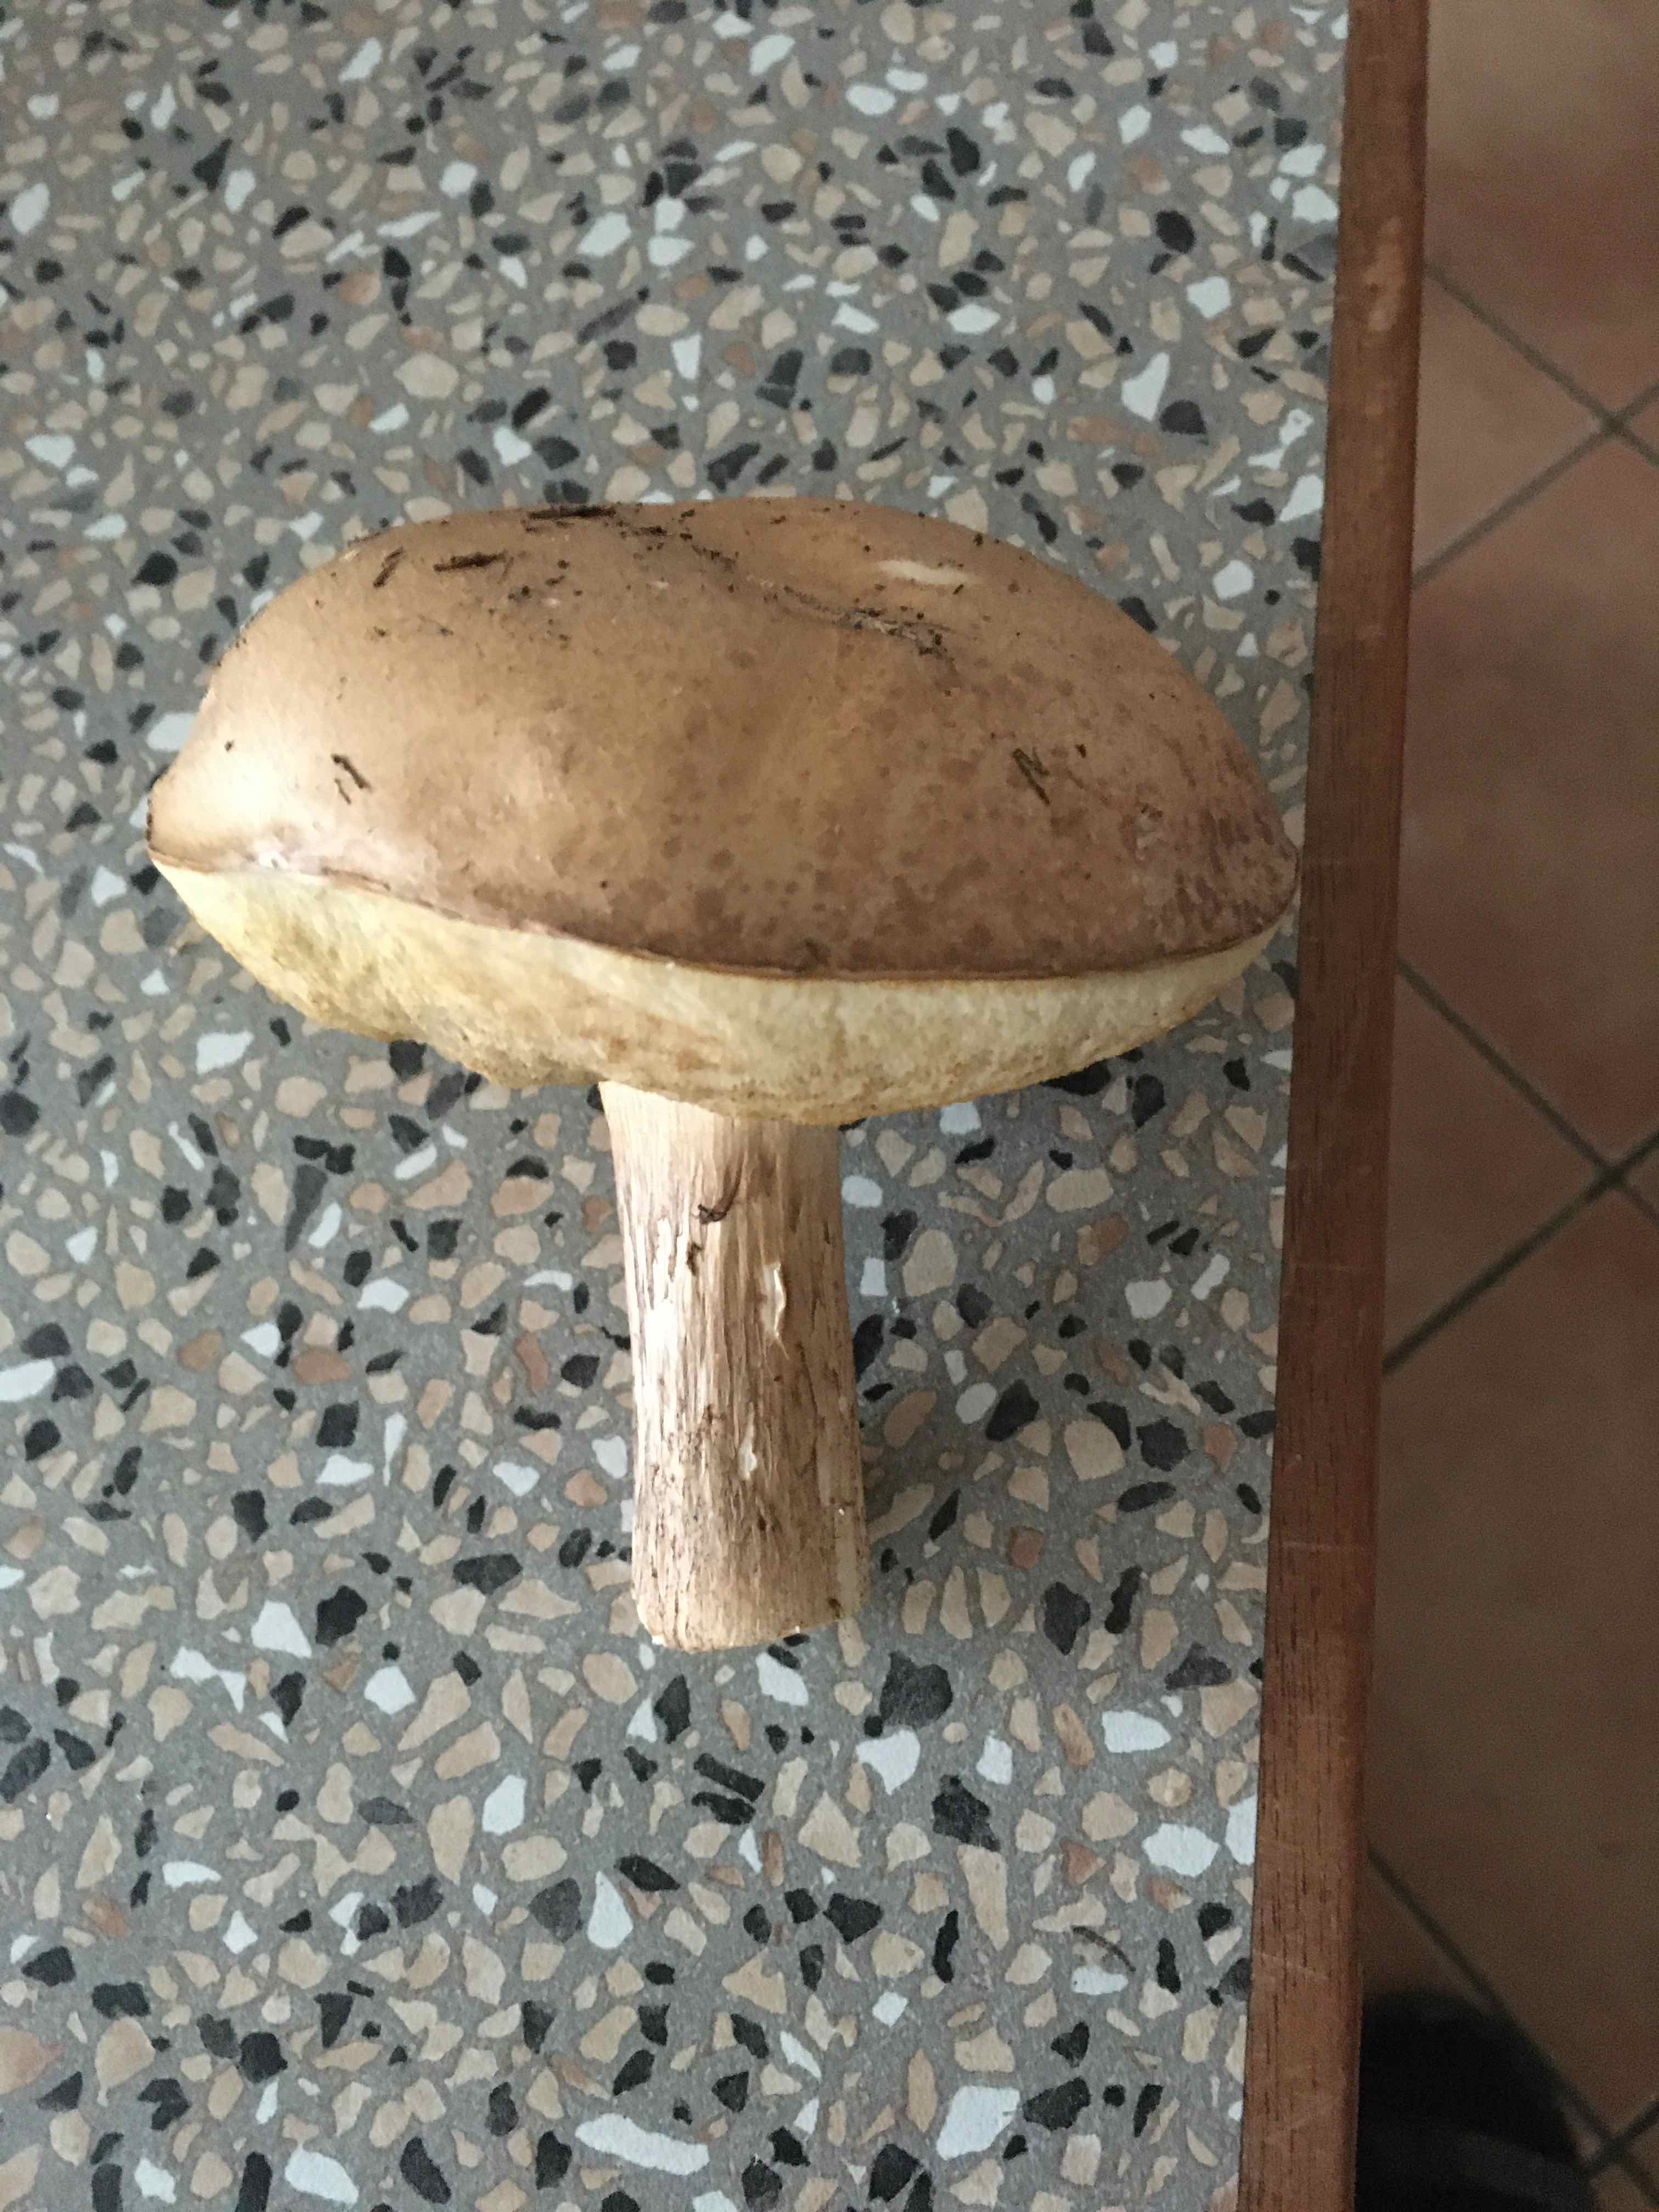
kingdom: Fungi
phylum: Basidiomycota
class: Agaricomycetes
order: Boletales
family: Boletaceae
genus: Leccinum
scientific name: Leccinum scabrum
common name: brun skælrørhat
